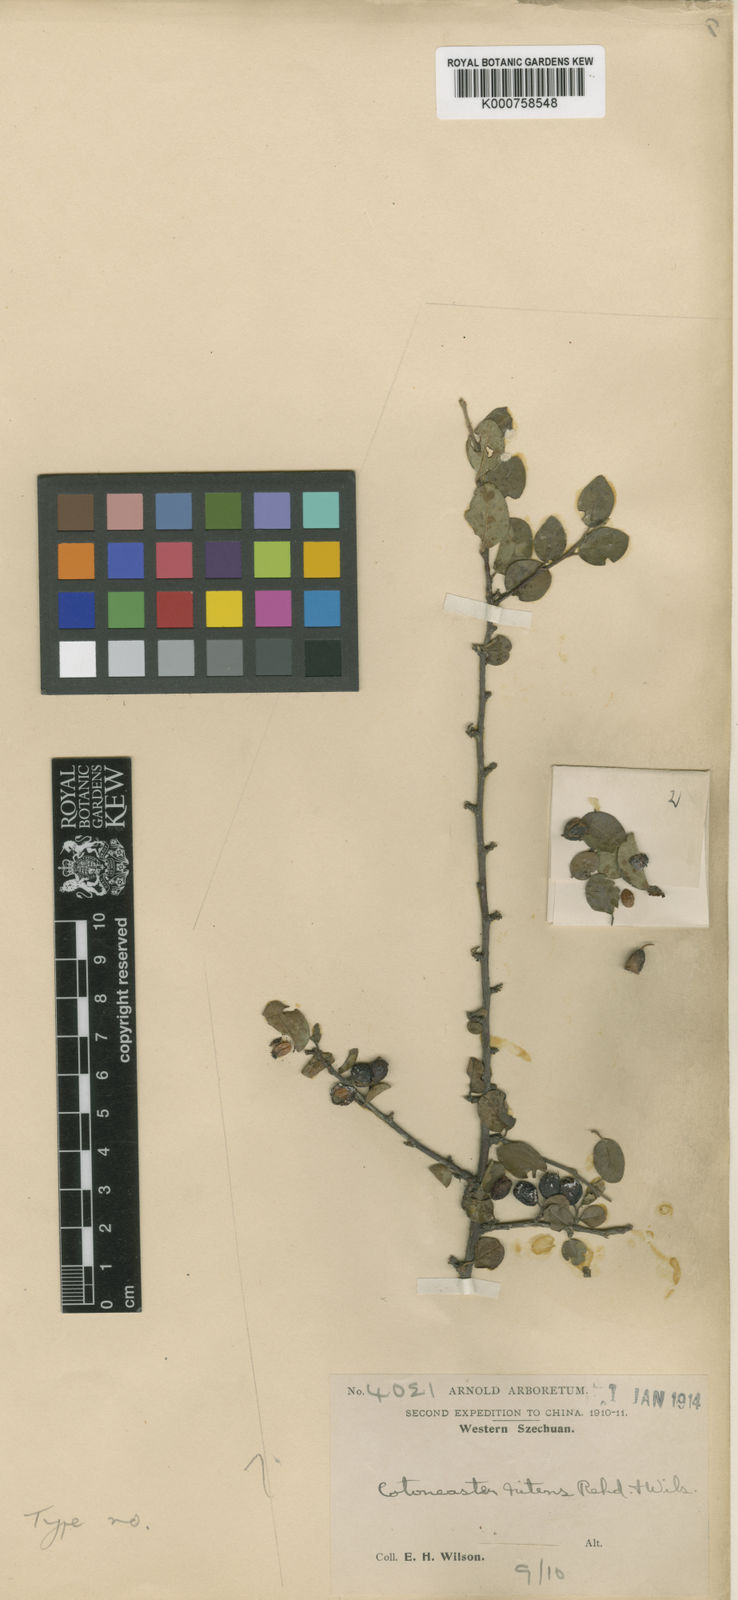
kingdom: Plantae
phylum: Tracheophyta
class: Magnoliopsida
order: Rosales
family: Rosaceae
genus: Cotoneaster
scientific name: Cotoneaster nitens
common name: Few-flowered cotoneaster
